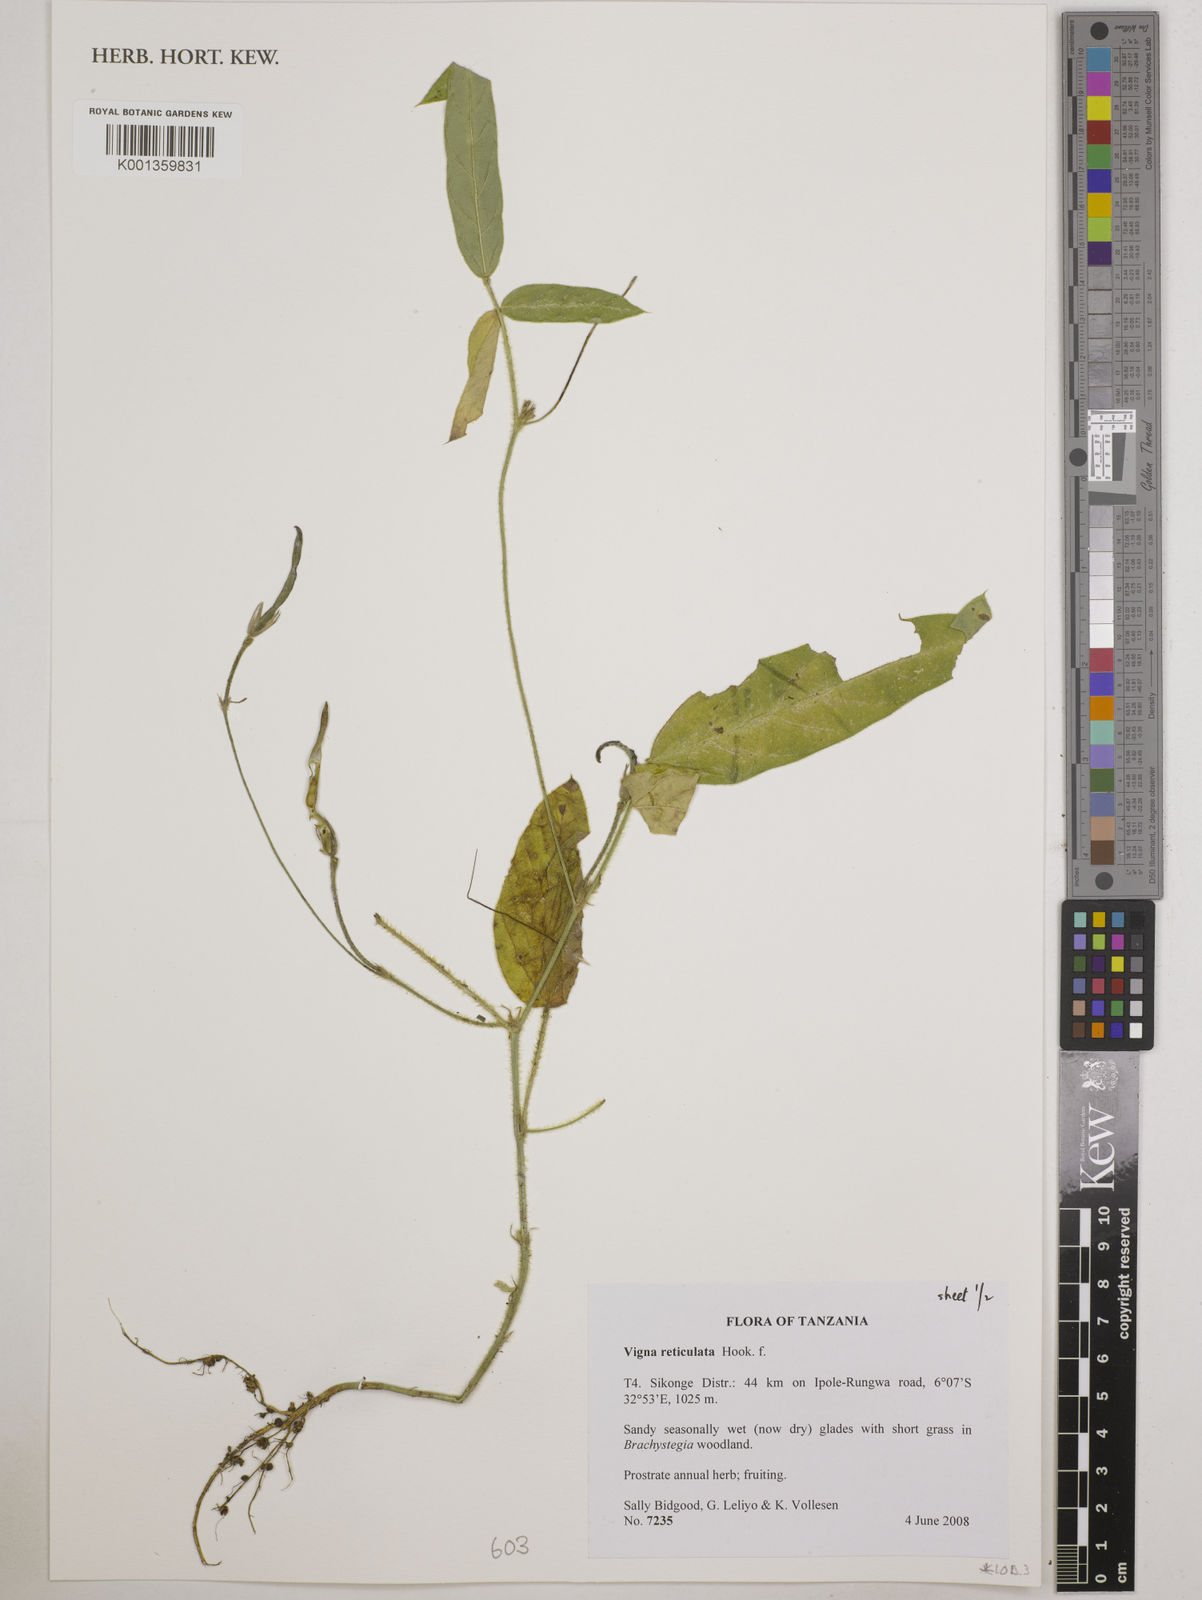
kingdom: Plantae
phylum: Tracheophyta
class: Magnoliopsida
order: Fabales
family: Fabaceae
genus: Vigna
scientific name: Vigna reticulata
